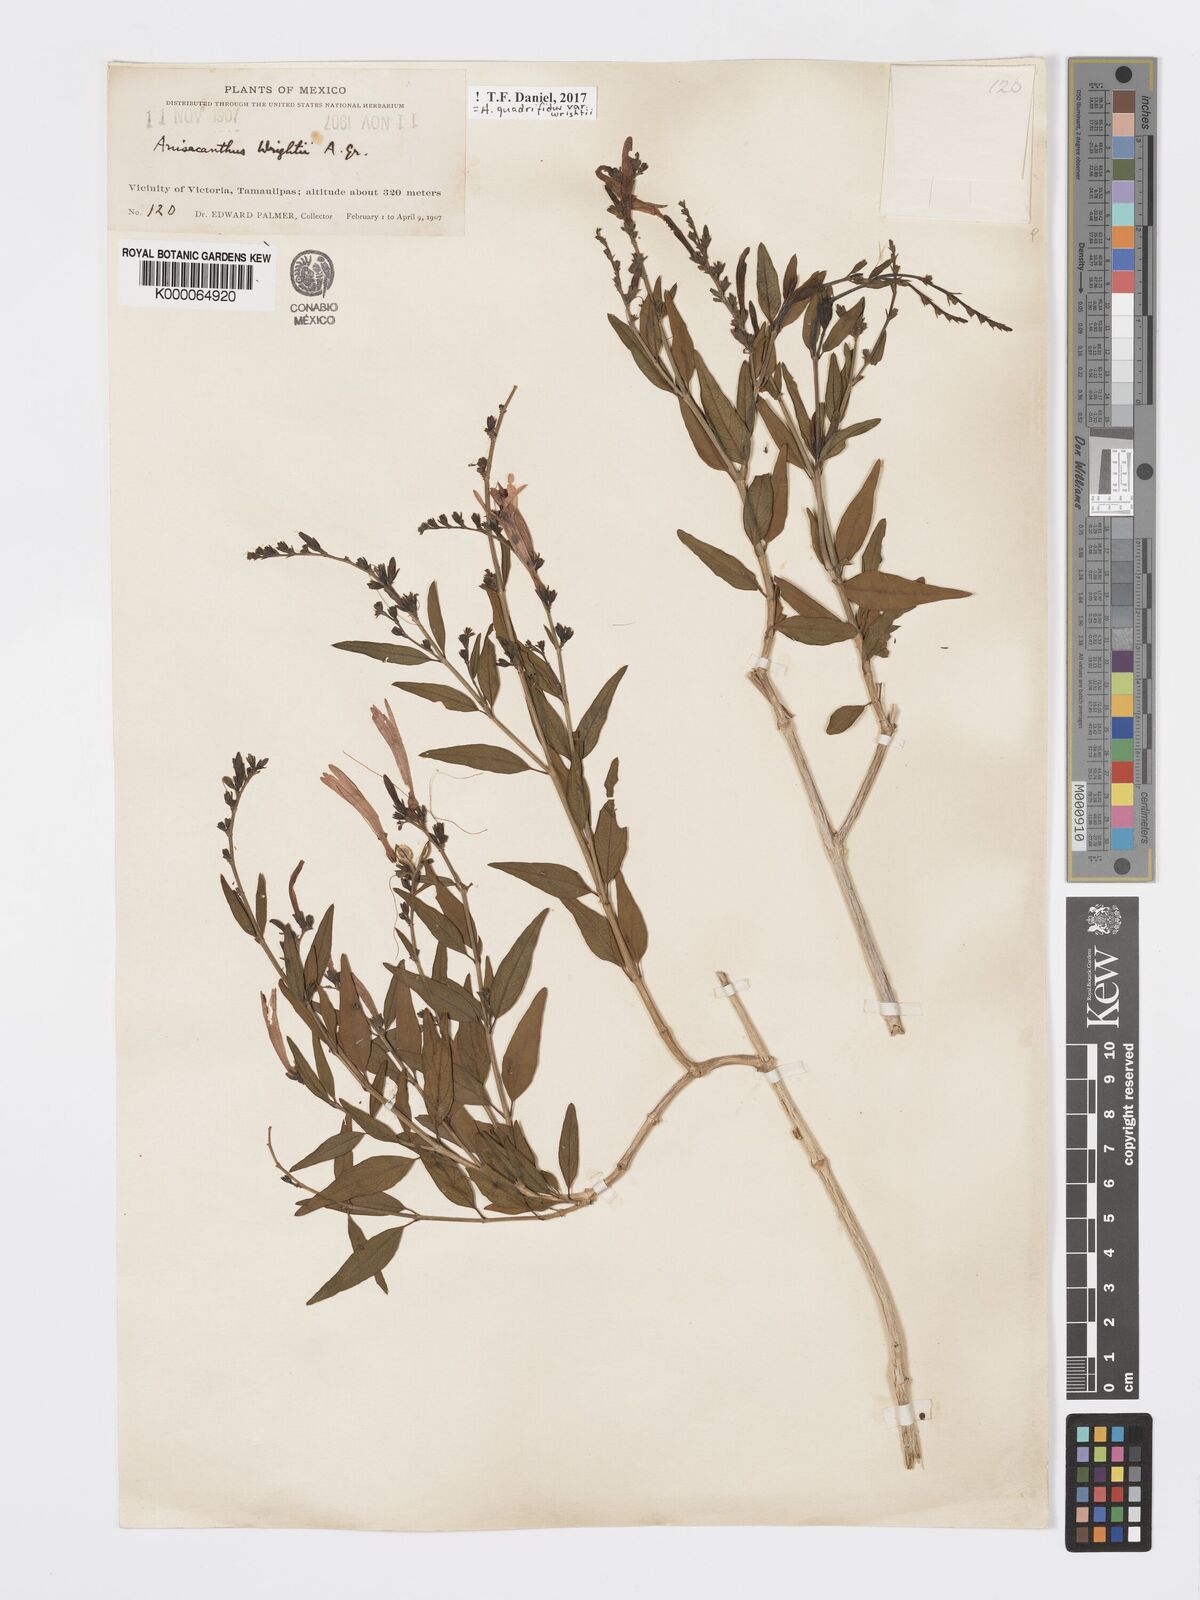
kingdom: Plantae
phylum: Tracheophyta
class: Magnoliopsida
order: Lamiales
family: Acanthaceae
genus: Anisacanthus
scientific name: Anisacanthus quadrifidus
